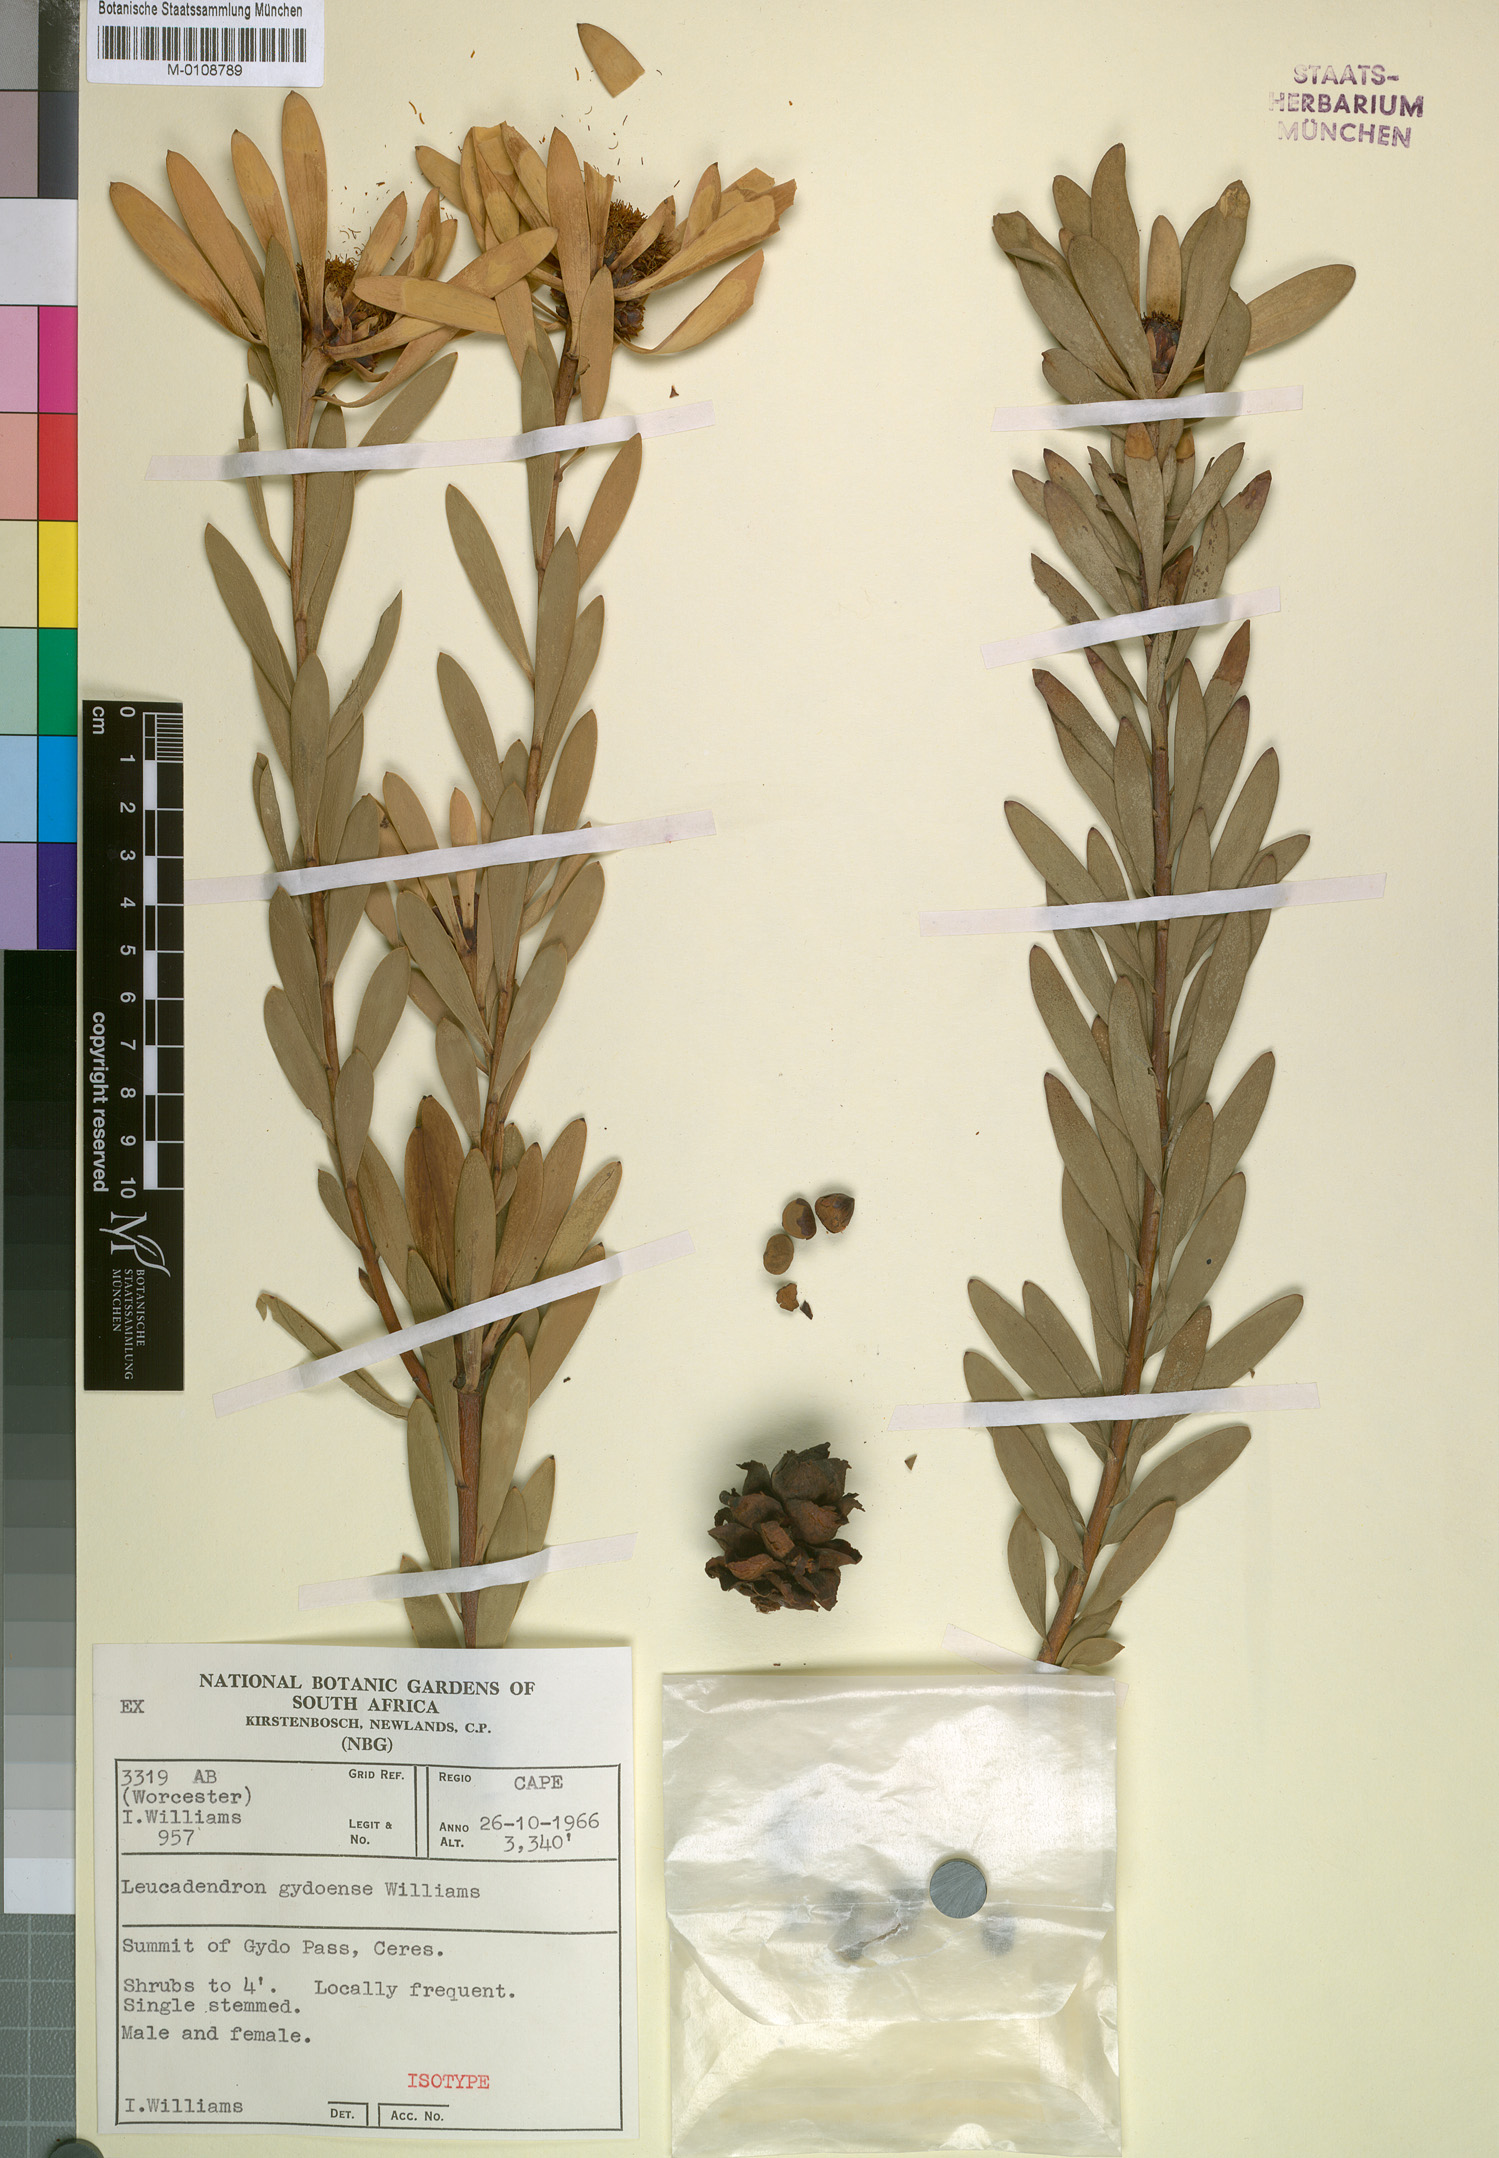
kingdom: Plantae
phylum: Tracheophyta
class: Magnoliopsida
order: Proteales
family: Proteaceae
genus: Leucadendron
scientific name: Leucadendron sheilae
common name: Lokenberg conebush
